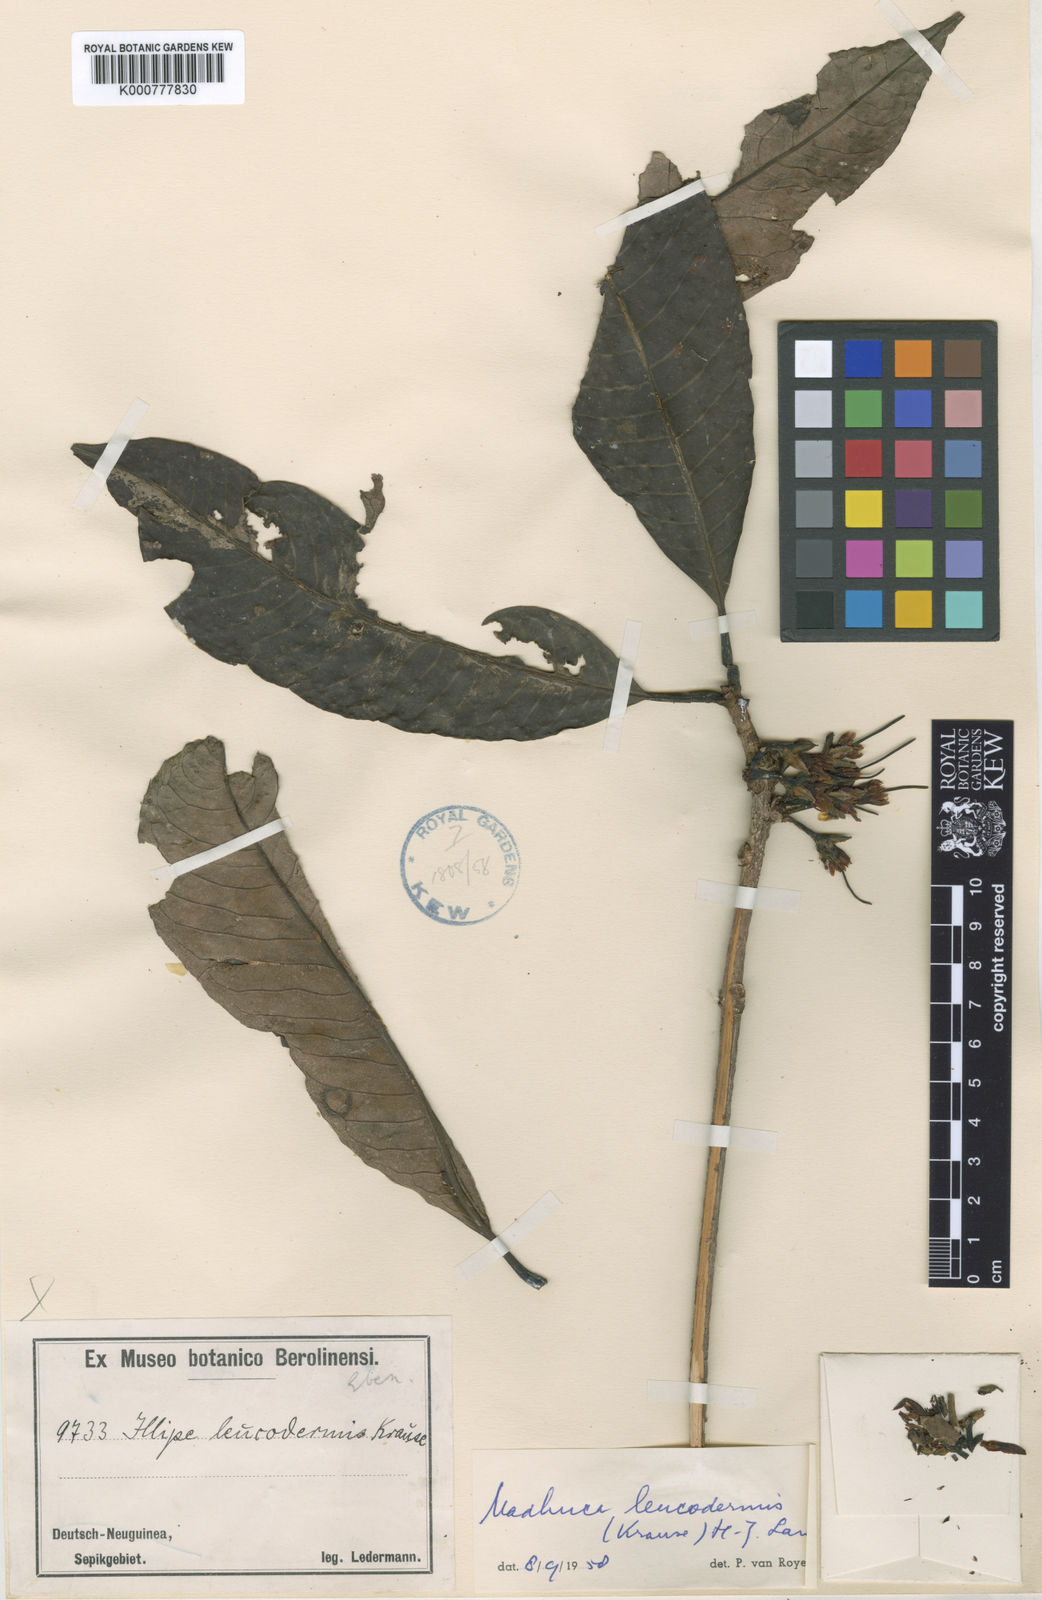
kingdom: Plantae
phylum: Tracheophyta
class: Magnoliopsida
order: Ericales
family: Sapotaceae
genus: Madhuca
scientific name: Madhuca leucodermis
